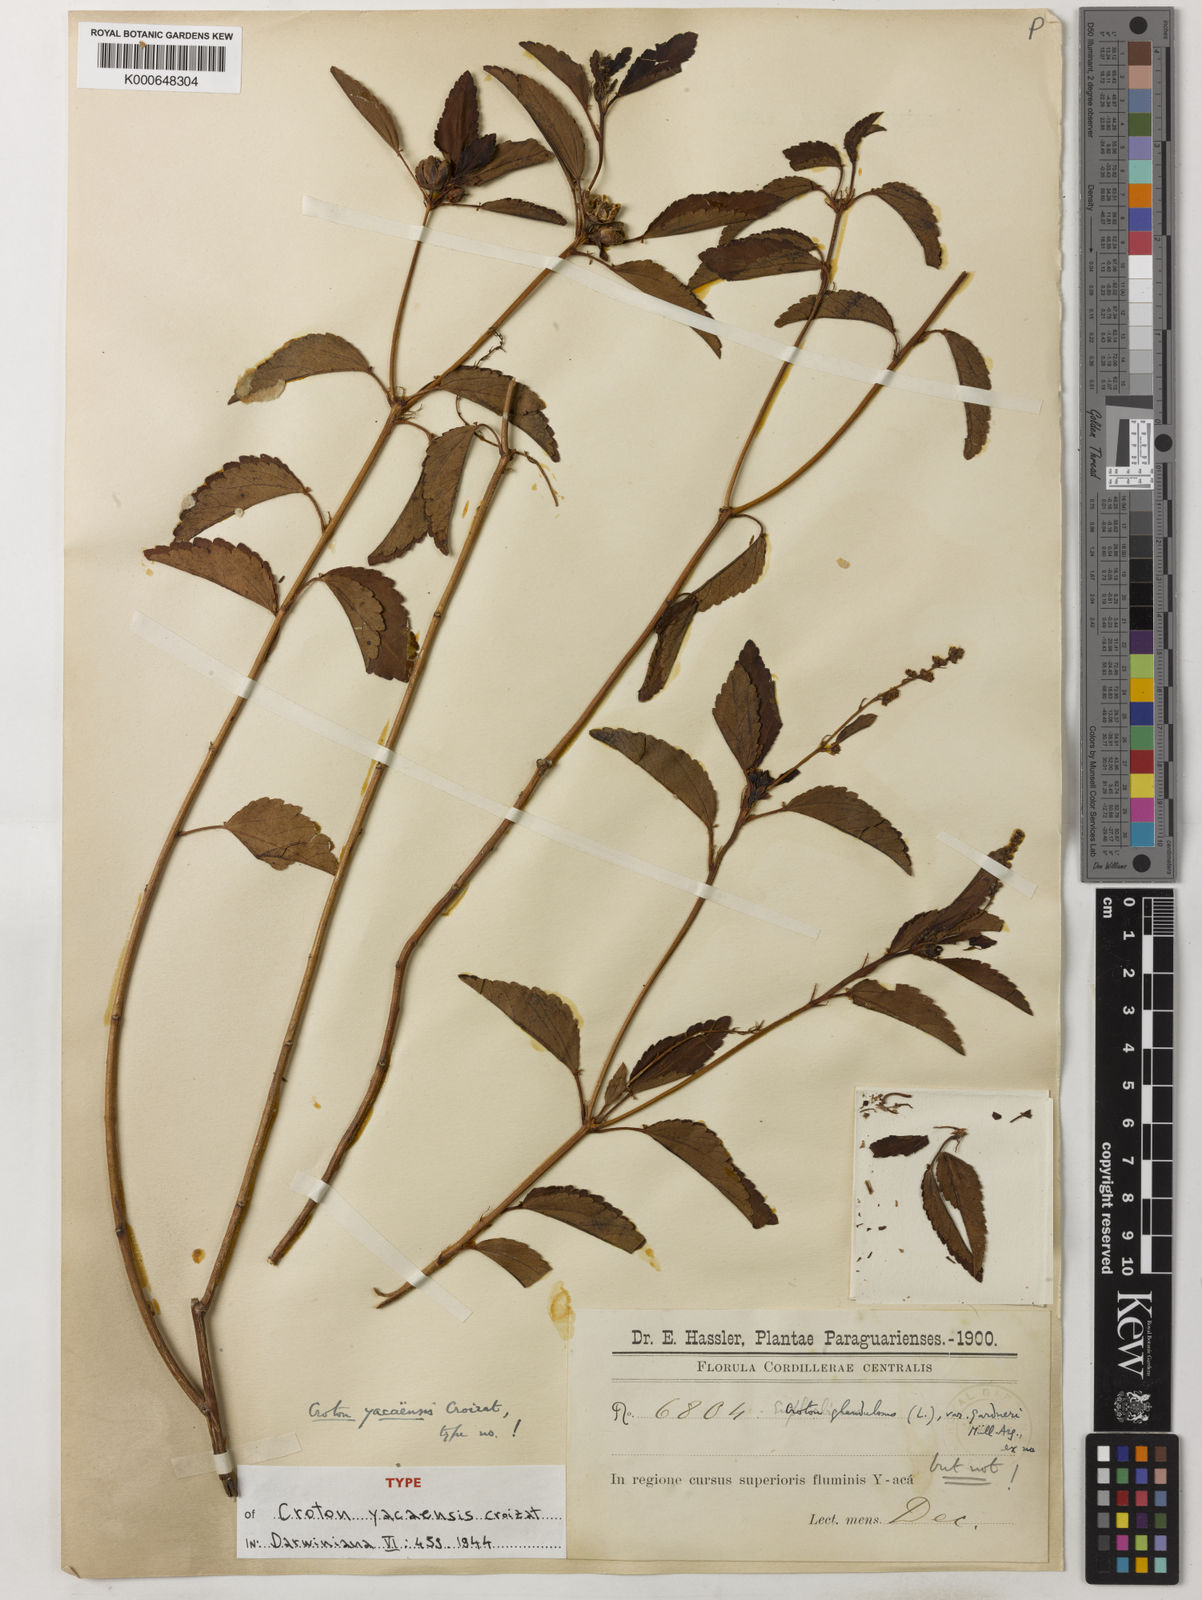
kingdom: Plantae
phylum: Tracheophyta
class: Magnoliopsida
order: Malpighiales
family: Euphorbiaceae
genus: Croton
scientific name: Croton lundianus
